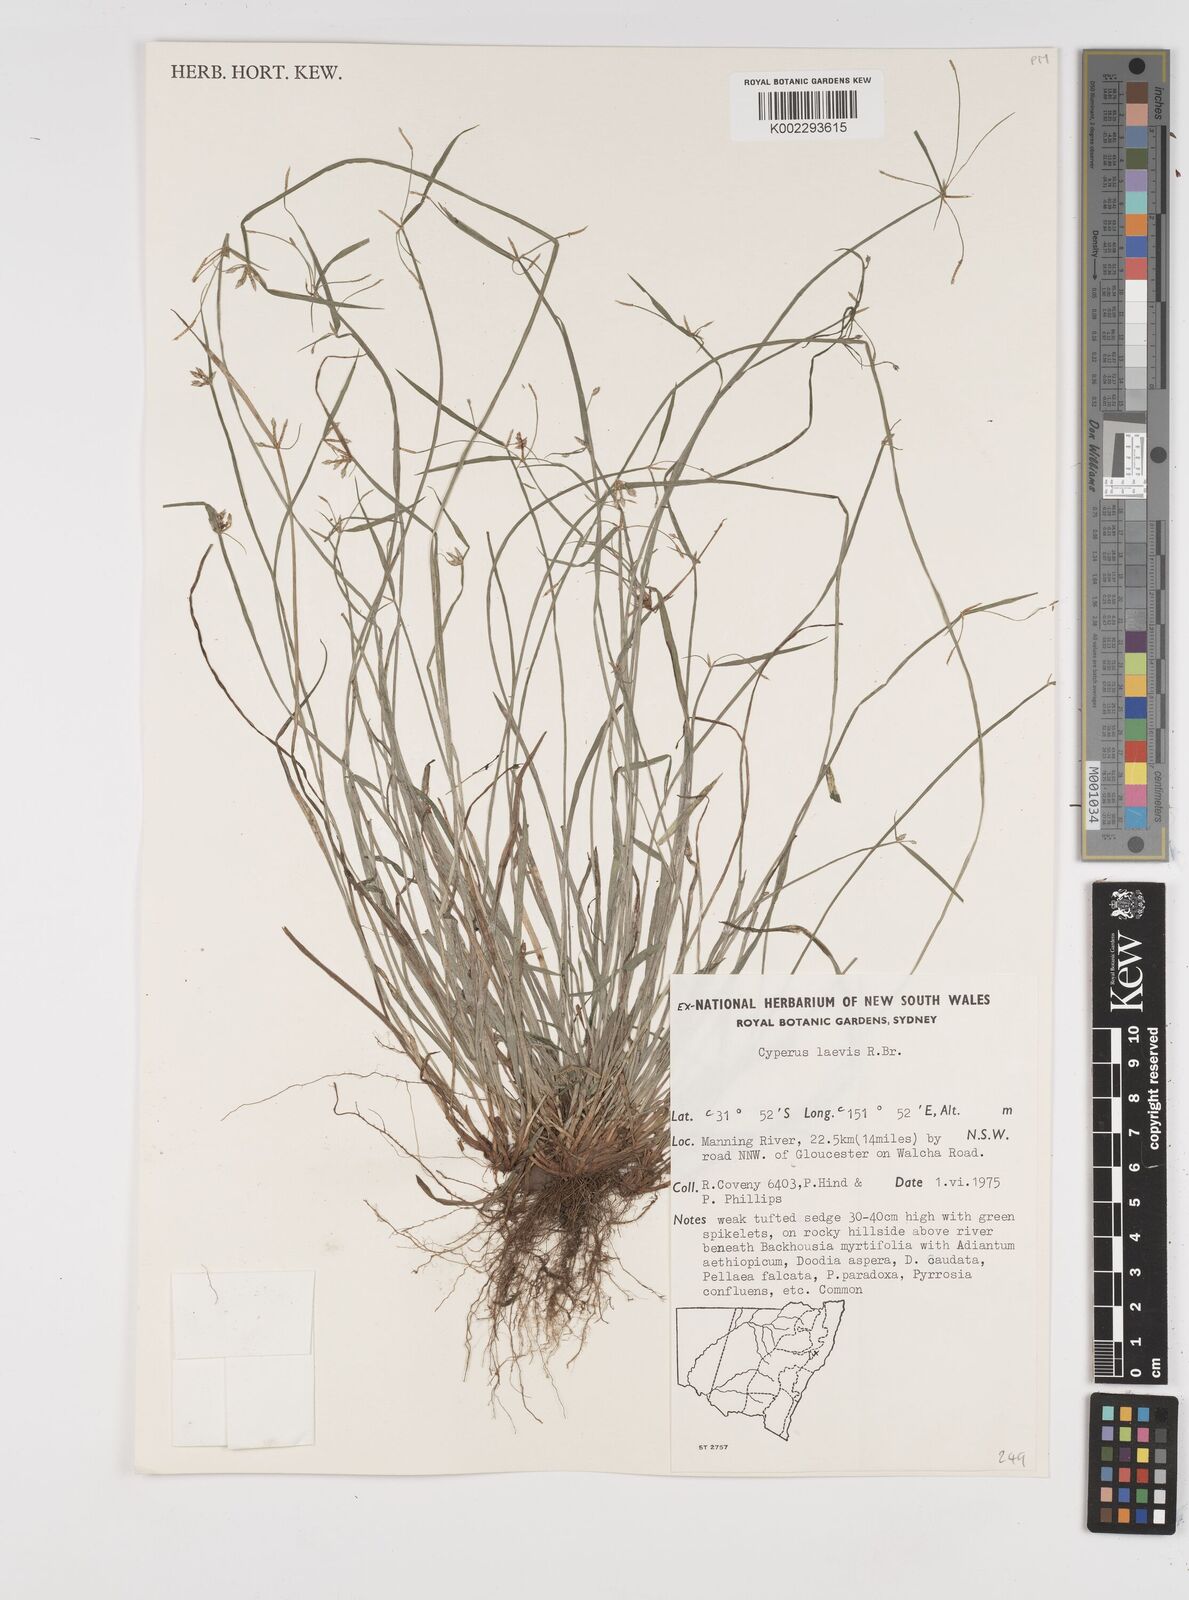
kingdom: Plantae
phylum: Tracheophyta
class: Liliopsida
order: Poales
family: Cyperaceae
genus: Cyperus
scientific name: Cyperus laevis
